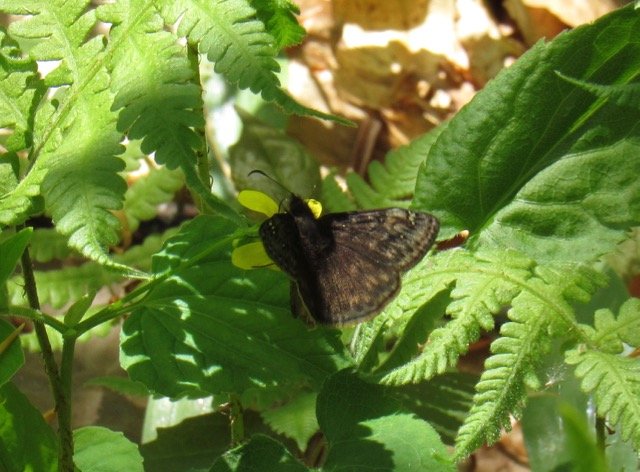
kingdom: Animalia
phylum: Arthropoda
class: Insecta
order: Lepidoptera
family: Hesperiidae
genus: Gesta
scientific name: Gesta
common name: Juvenal's Duskywing
